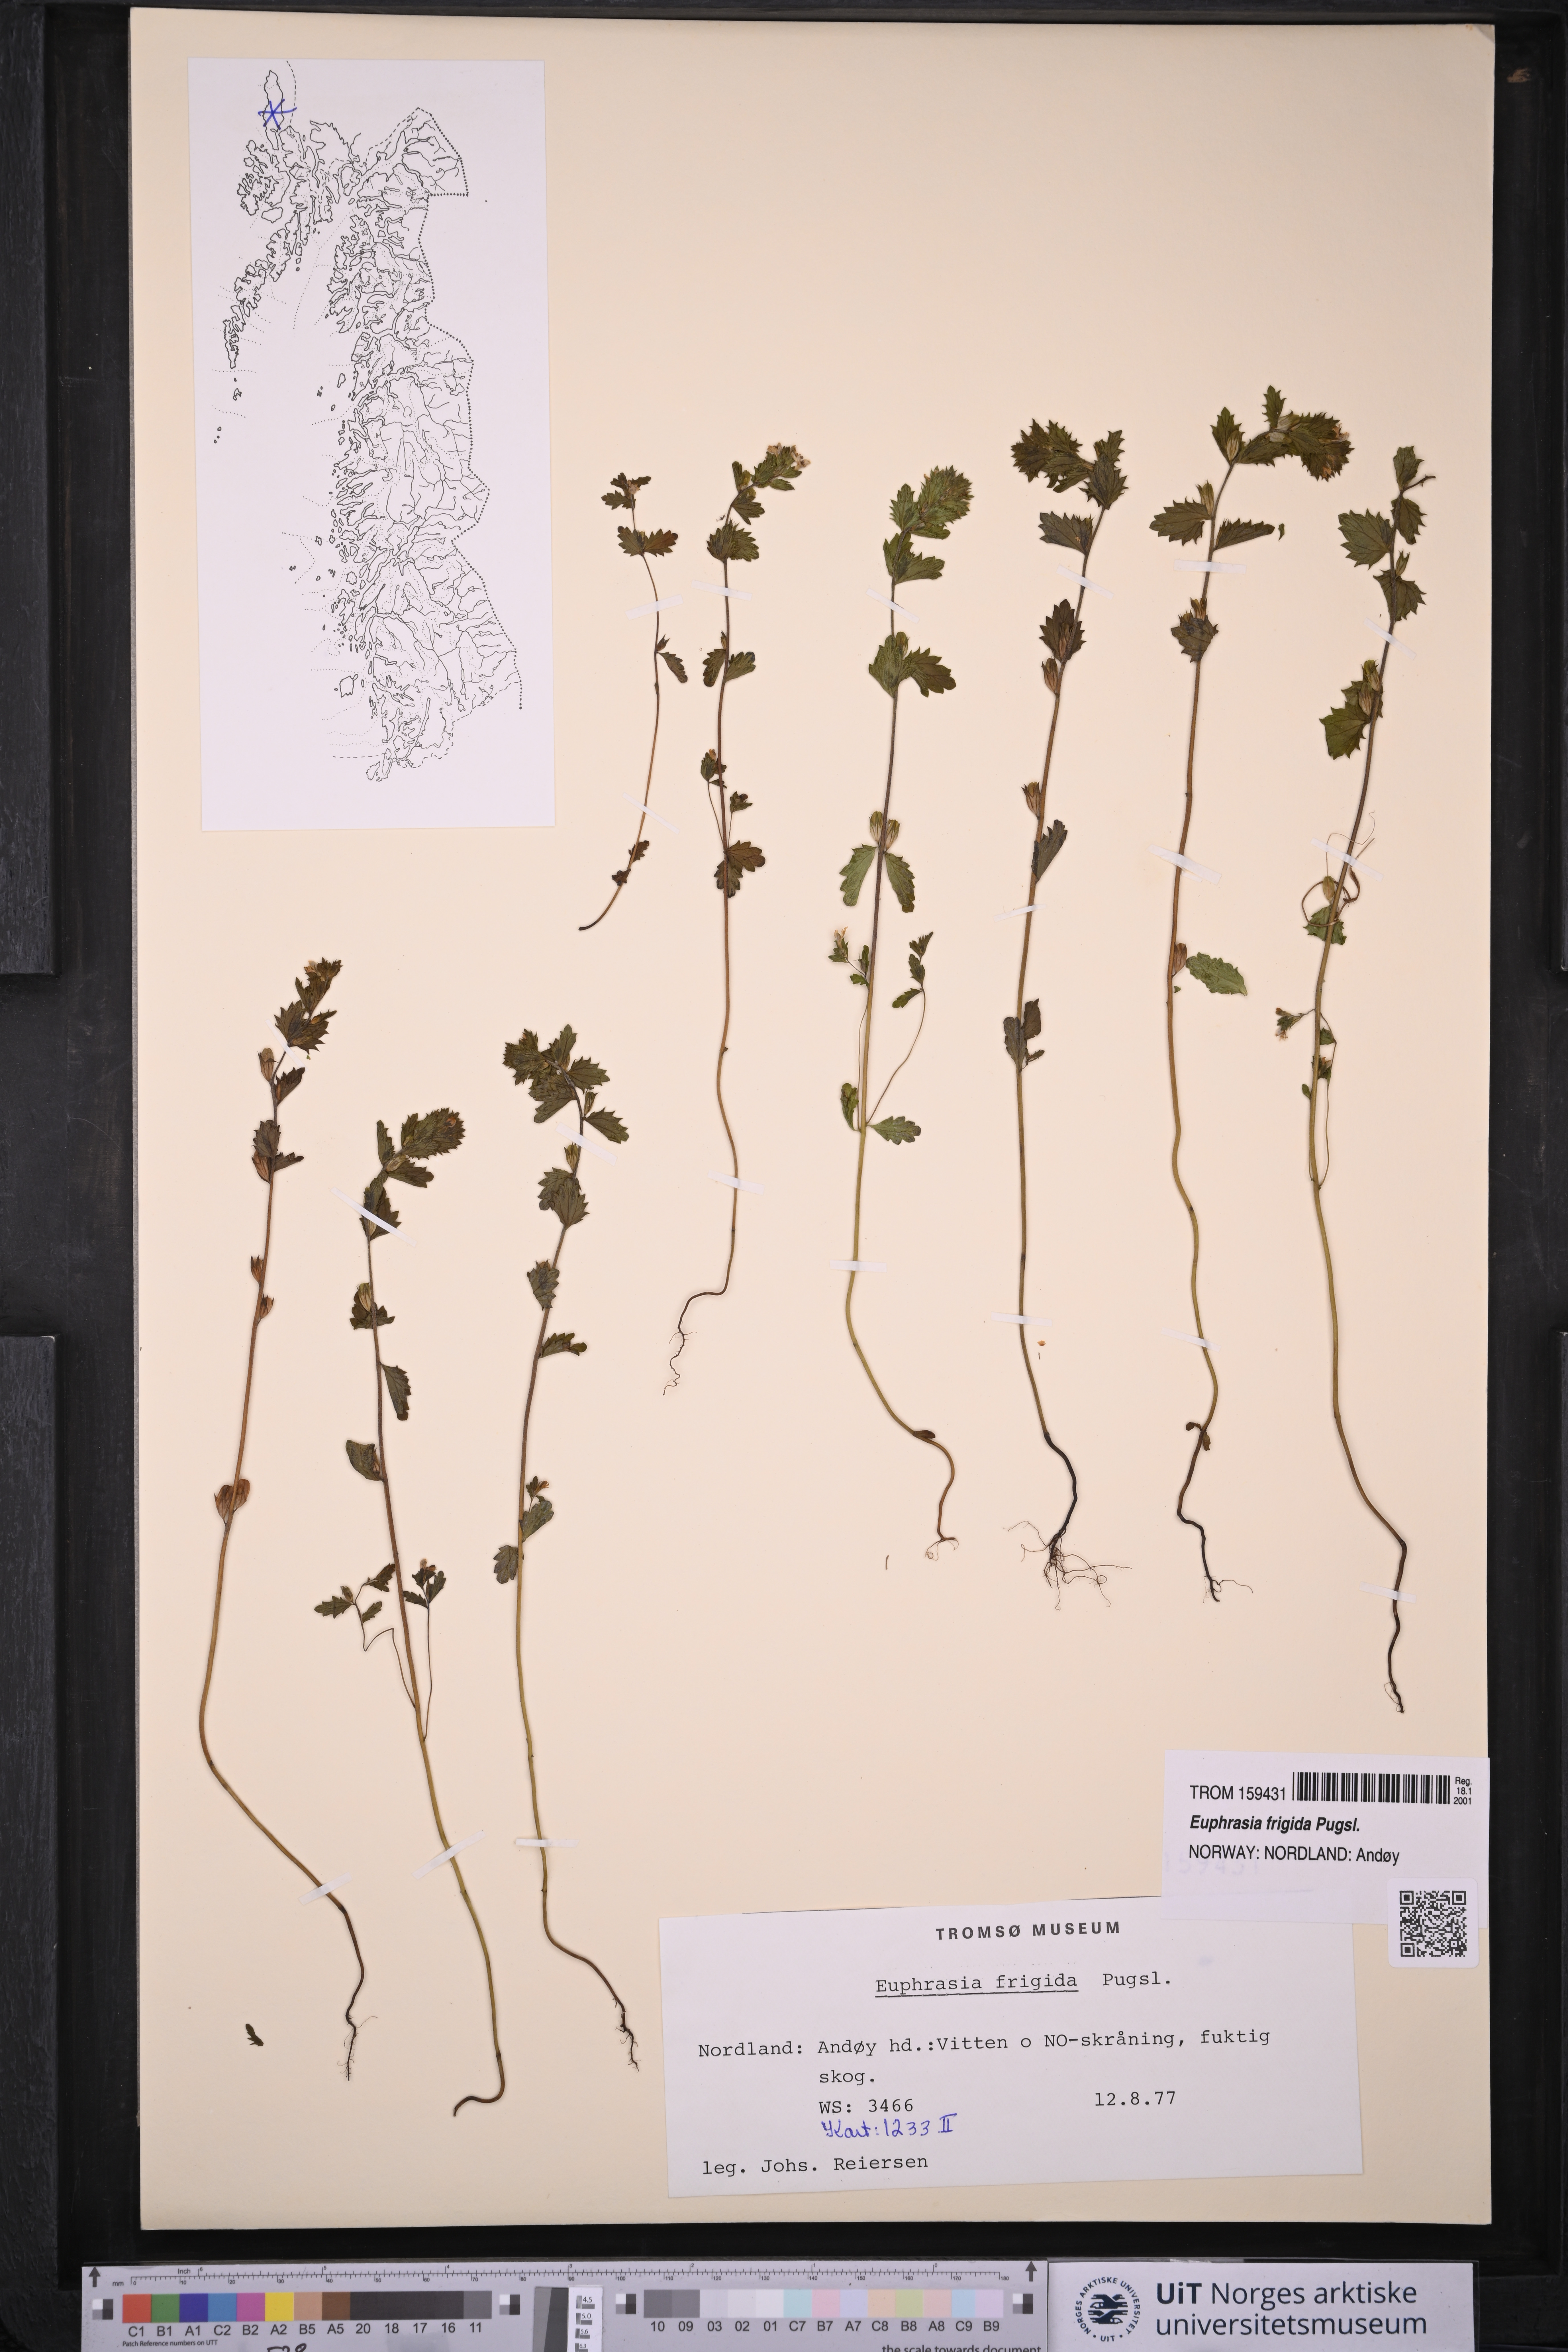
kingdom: Plantae
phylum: Tracheophyta
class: Magnoliopsida
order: Lamiales
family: Orobanchaceae
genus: Euphrasia
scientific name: Euphrasia frigida
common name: An eyebright
